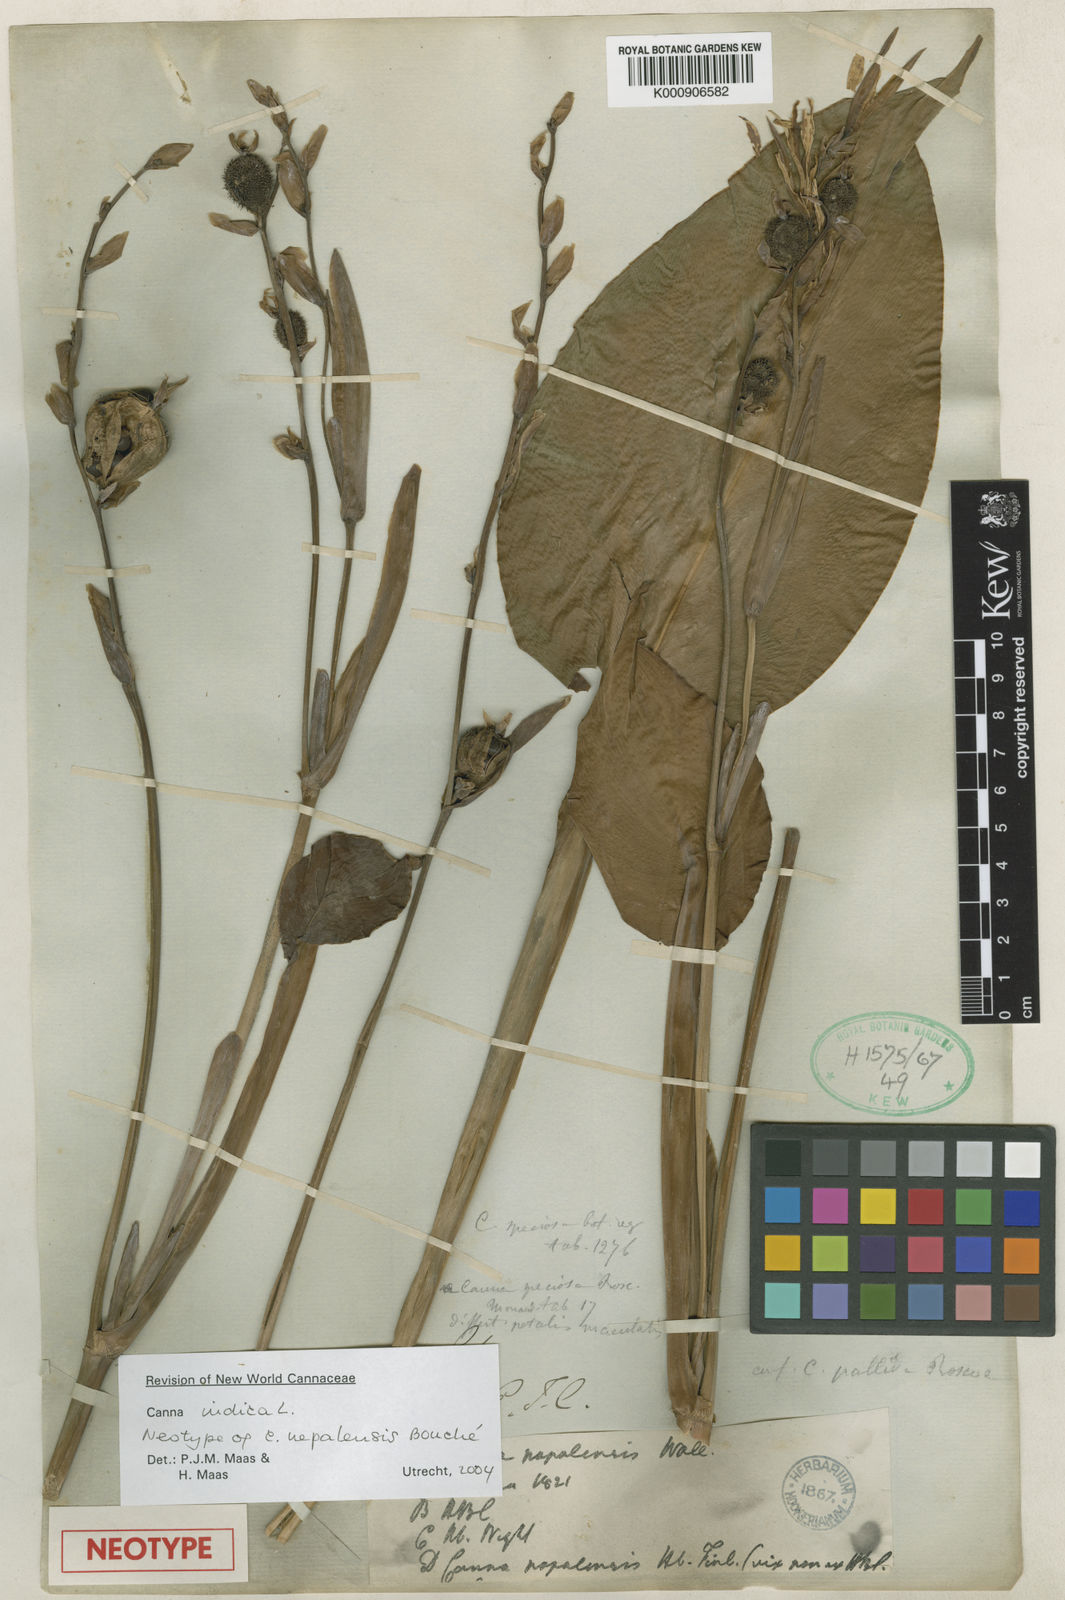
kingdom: Plantae
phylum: Tracheophyta
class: Liliopsida
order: Zingiberales
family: Cannaceae
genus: Canna
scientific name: Canna indica
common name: Indian shot
